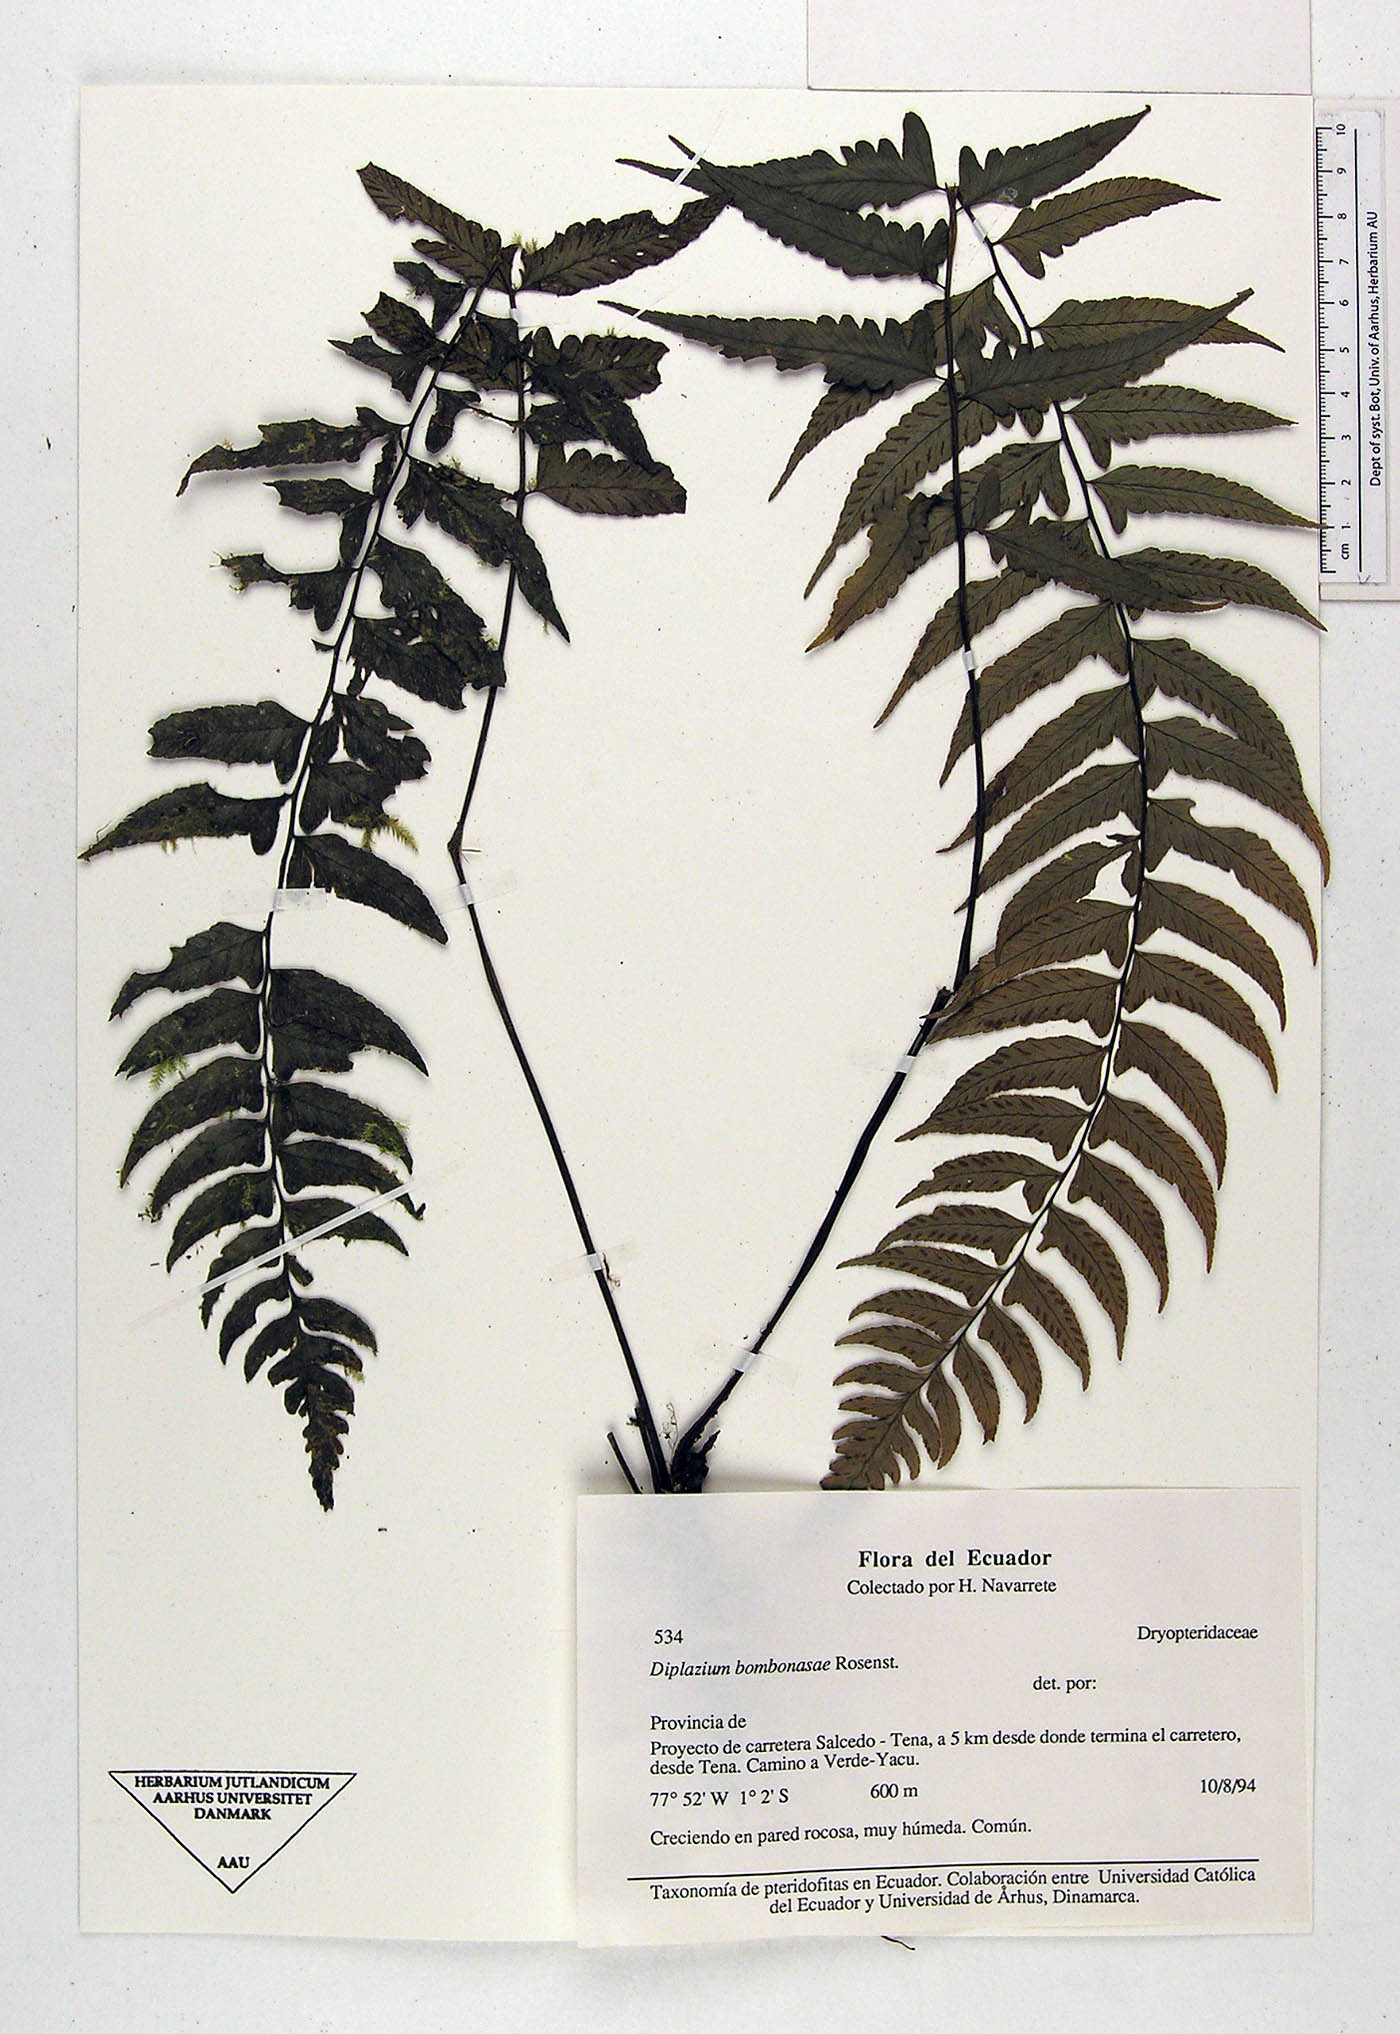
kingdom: Plantae
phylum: Tracheophyta
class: Polypodiopsida
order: Polypodiales
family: Athyriaceae
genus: Diplazium
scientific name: Diplazium bombonasae
